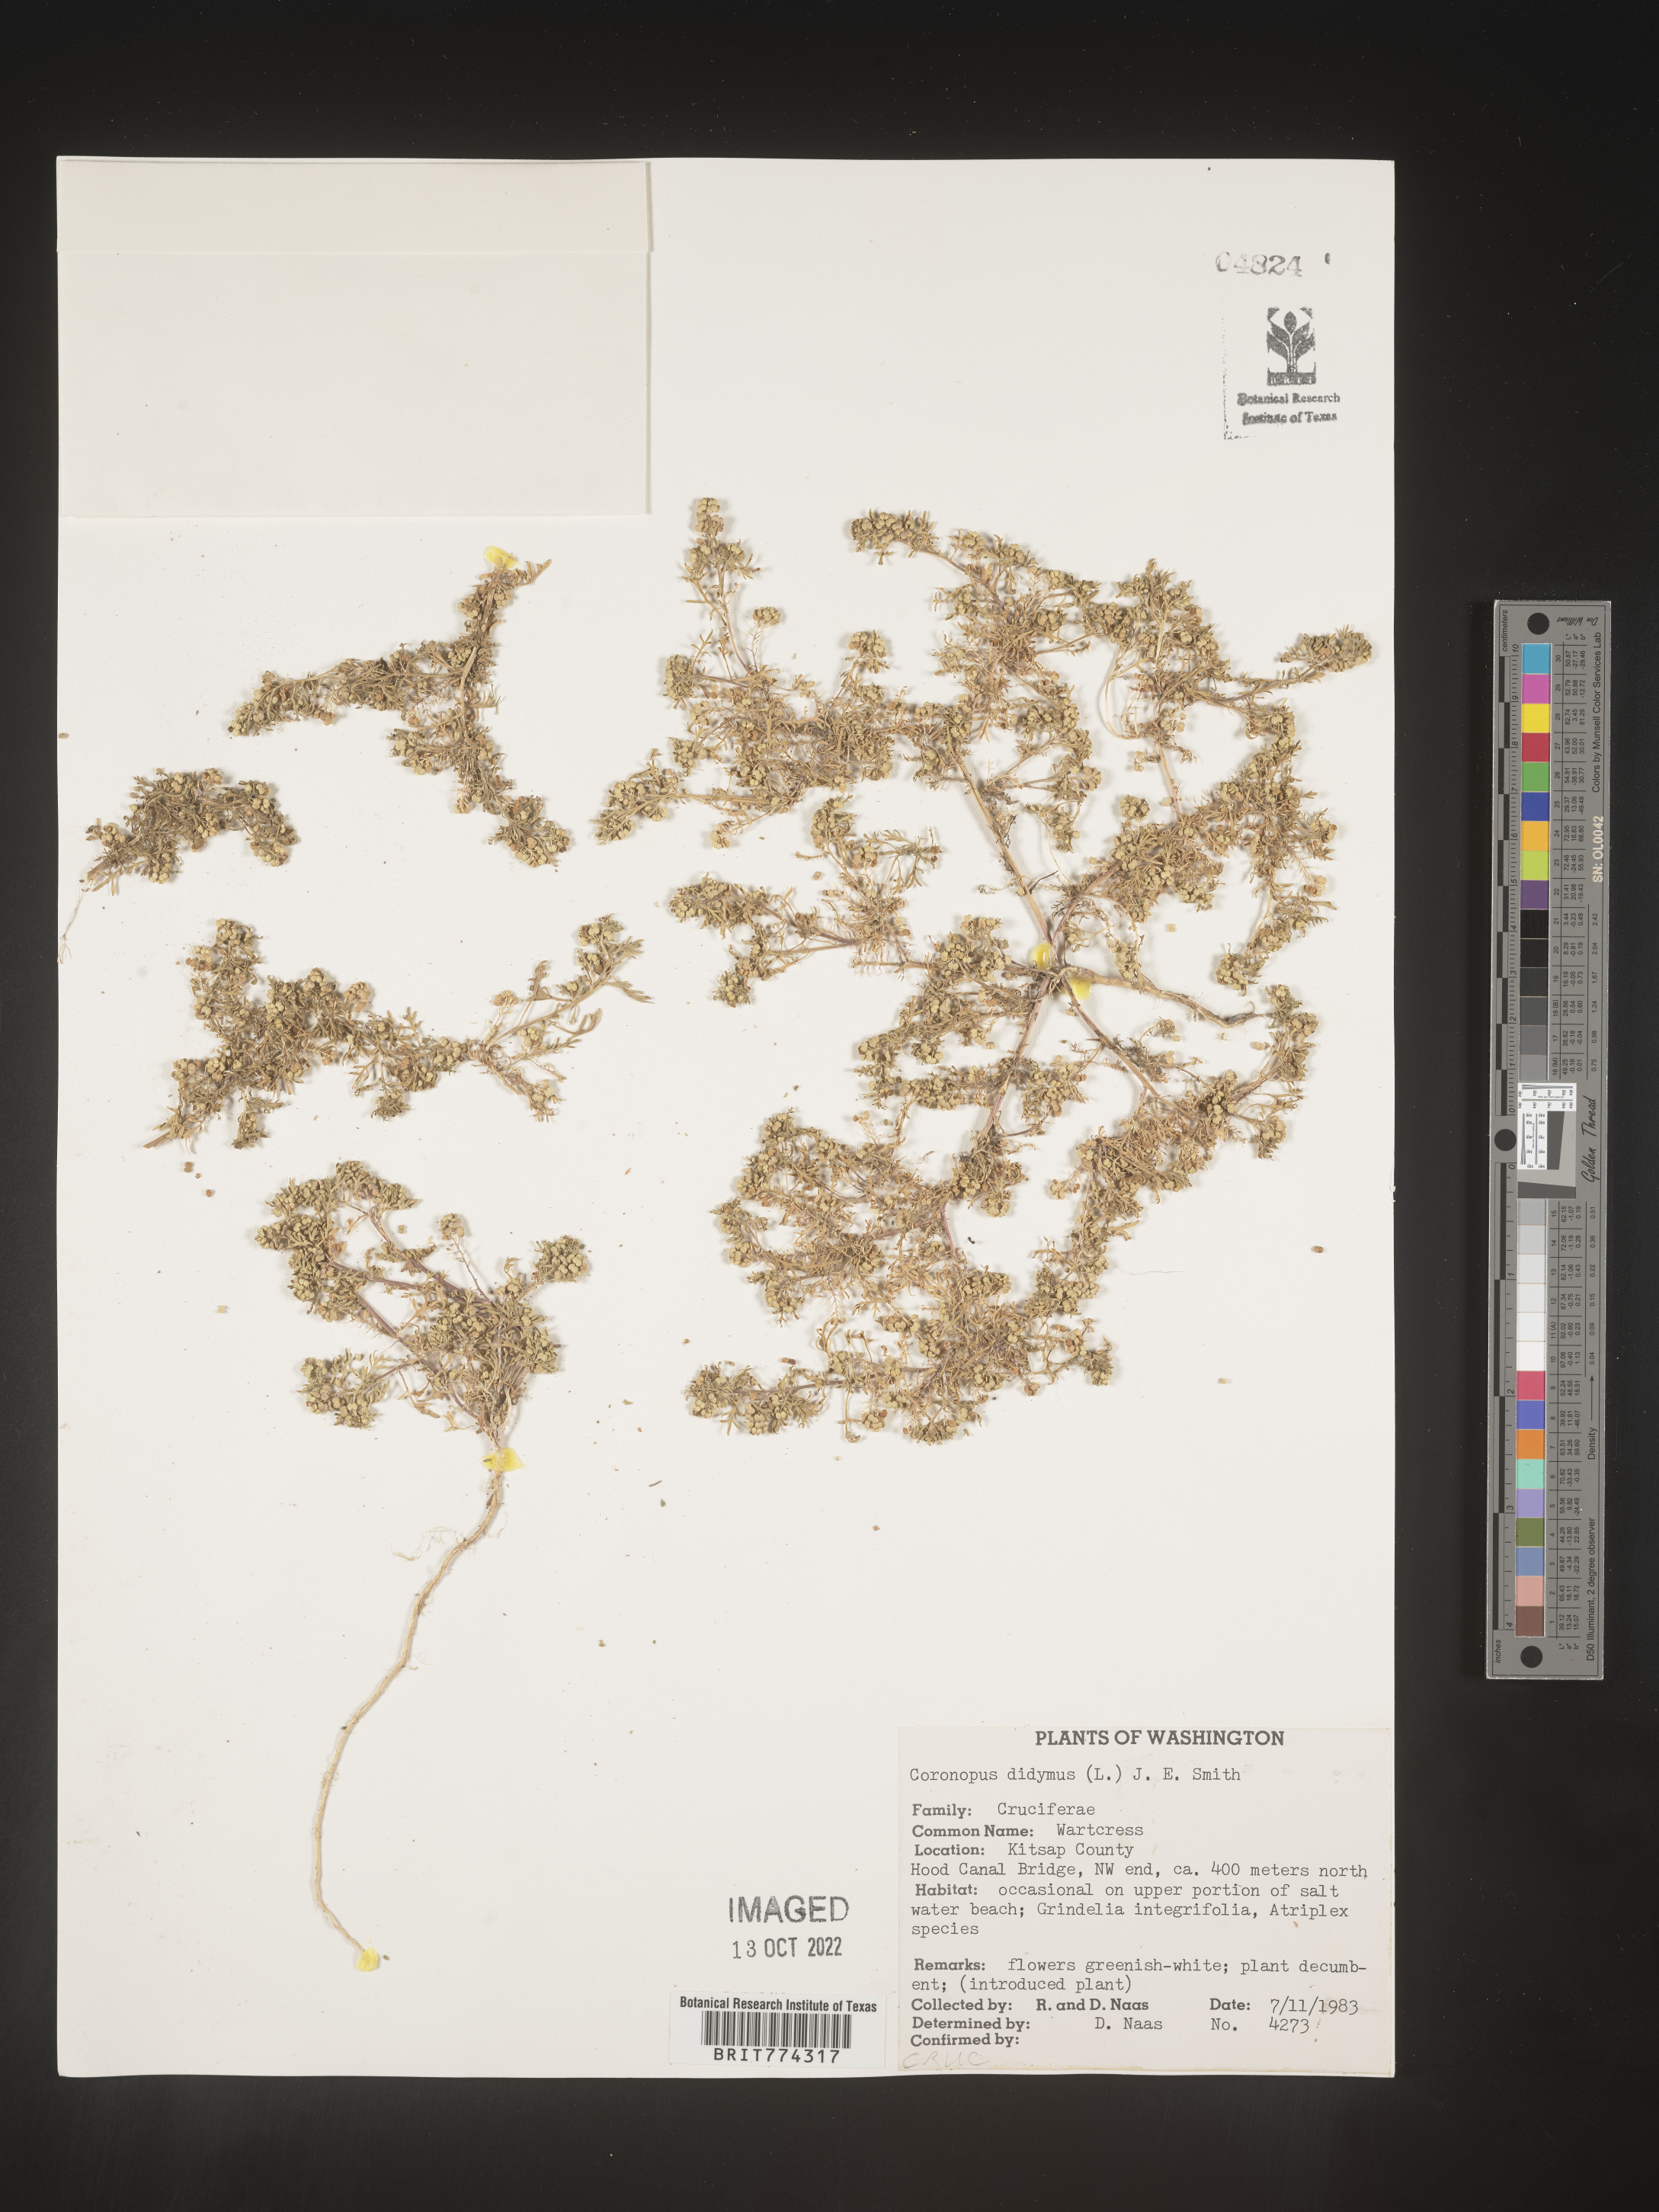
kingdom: Plantae
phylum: Tracheophyta
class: Magnoliopsida
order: Brassicales
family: Brassicaceae
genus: Coronopus
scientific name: Coronopus
